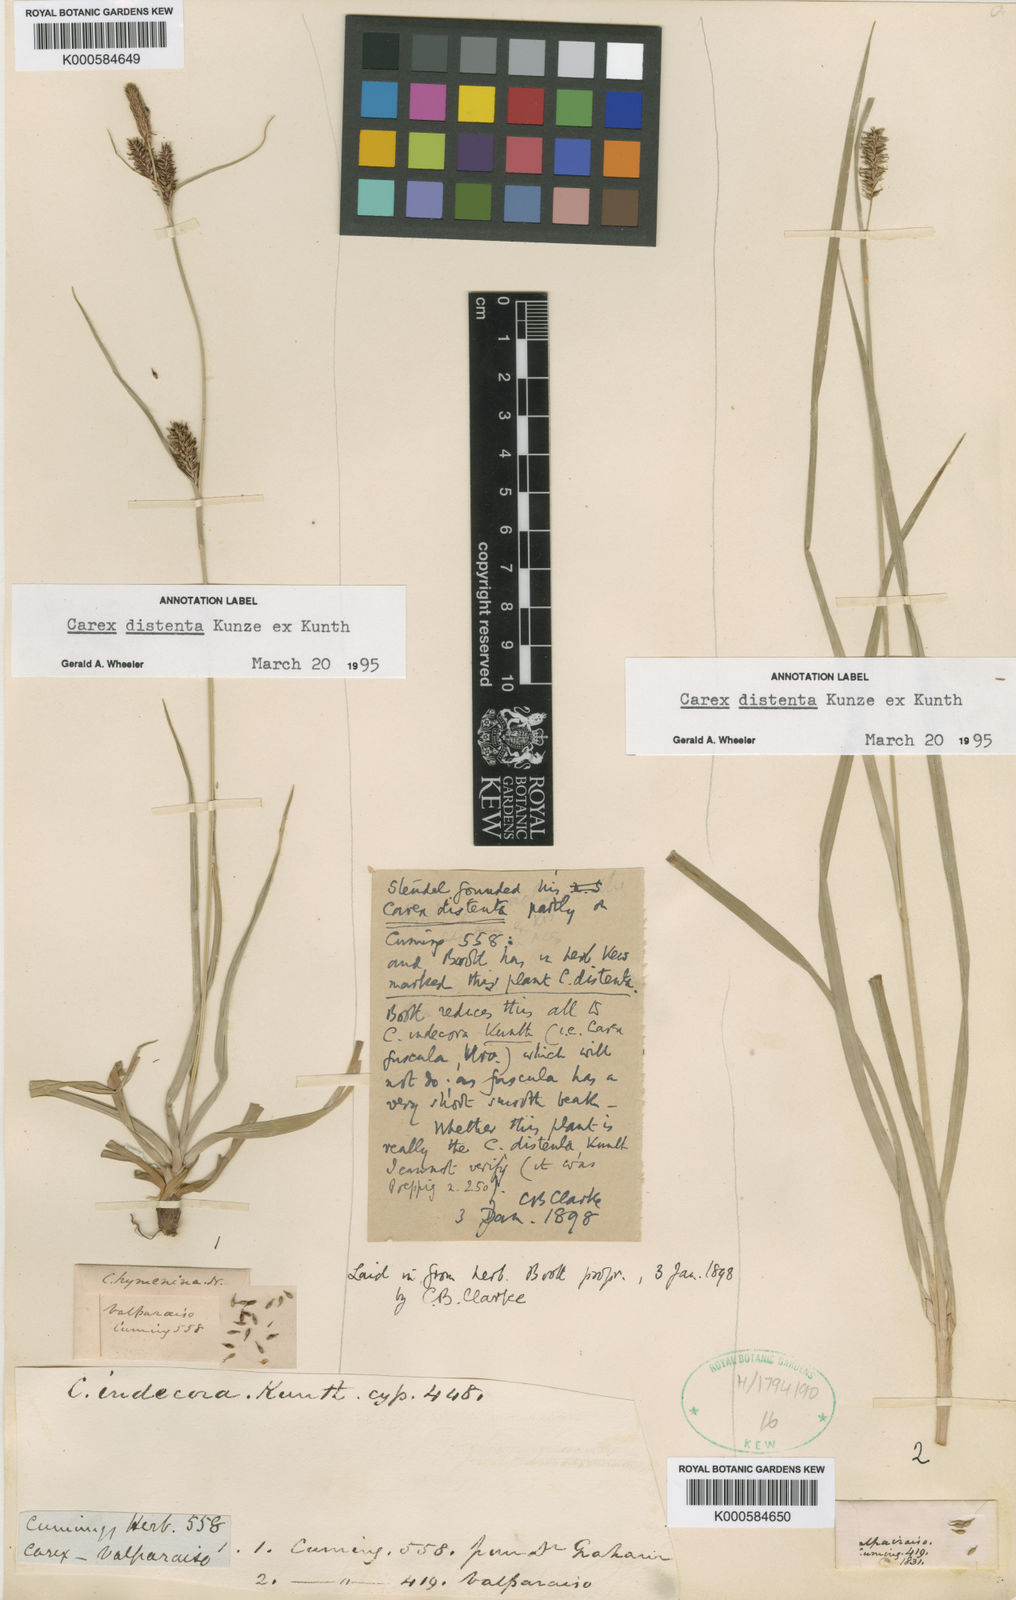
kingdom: Plantae
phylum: Tracheophyta
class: Liliopsida
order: Poales
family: Cyperaceae
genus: Carex
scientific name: Carex catharinensis
